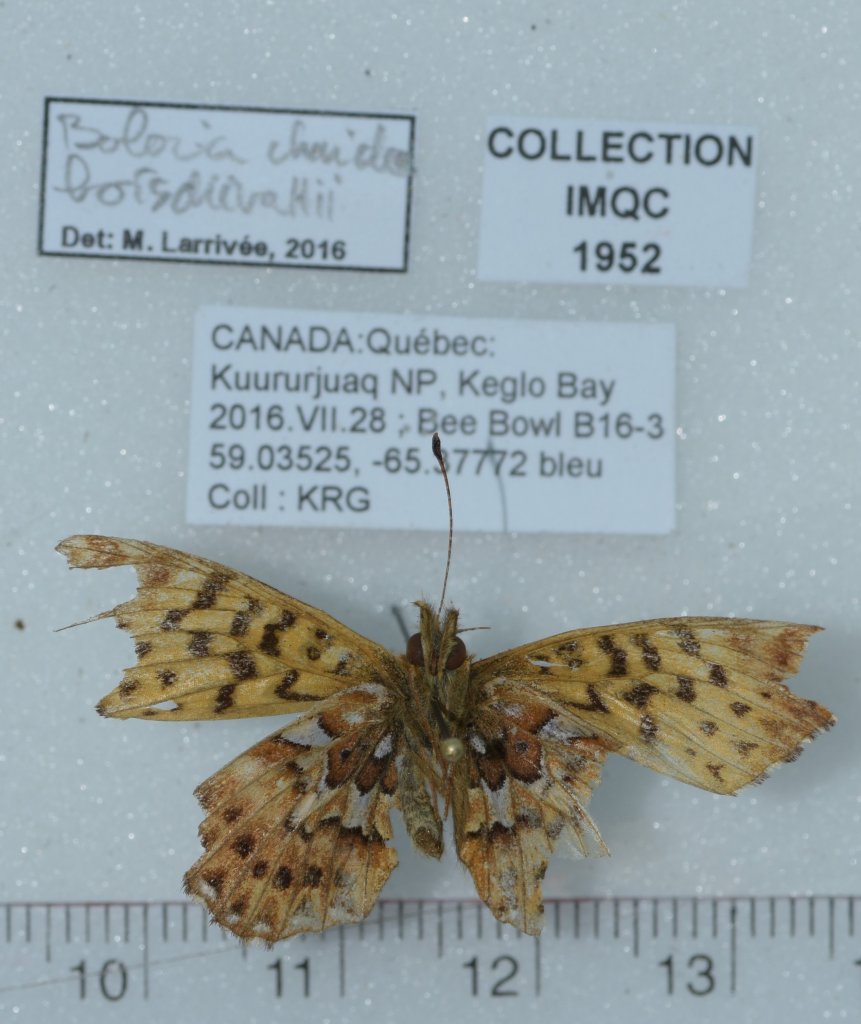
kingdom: Animalia
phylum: Arthropoda
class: Insecta
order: Lepidoptera
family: Nymphalidae
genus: Boloria
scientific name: Boloria chariclea
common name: Arctic Fritillary
